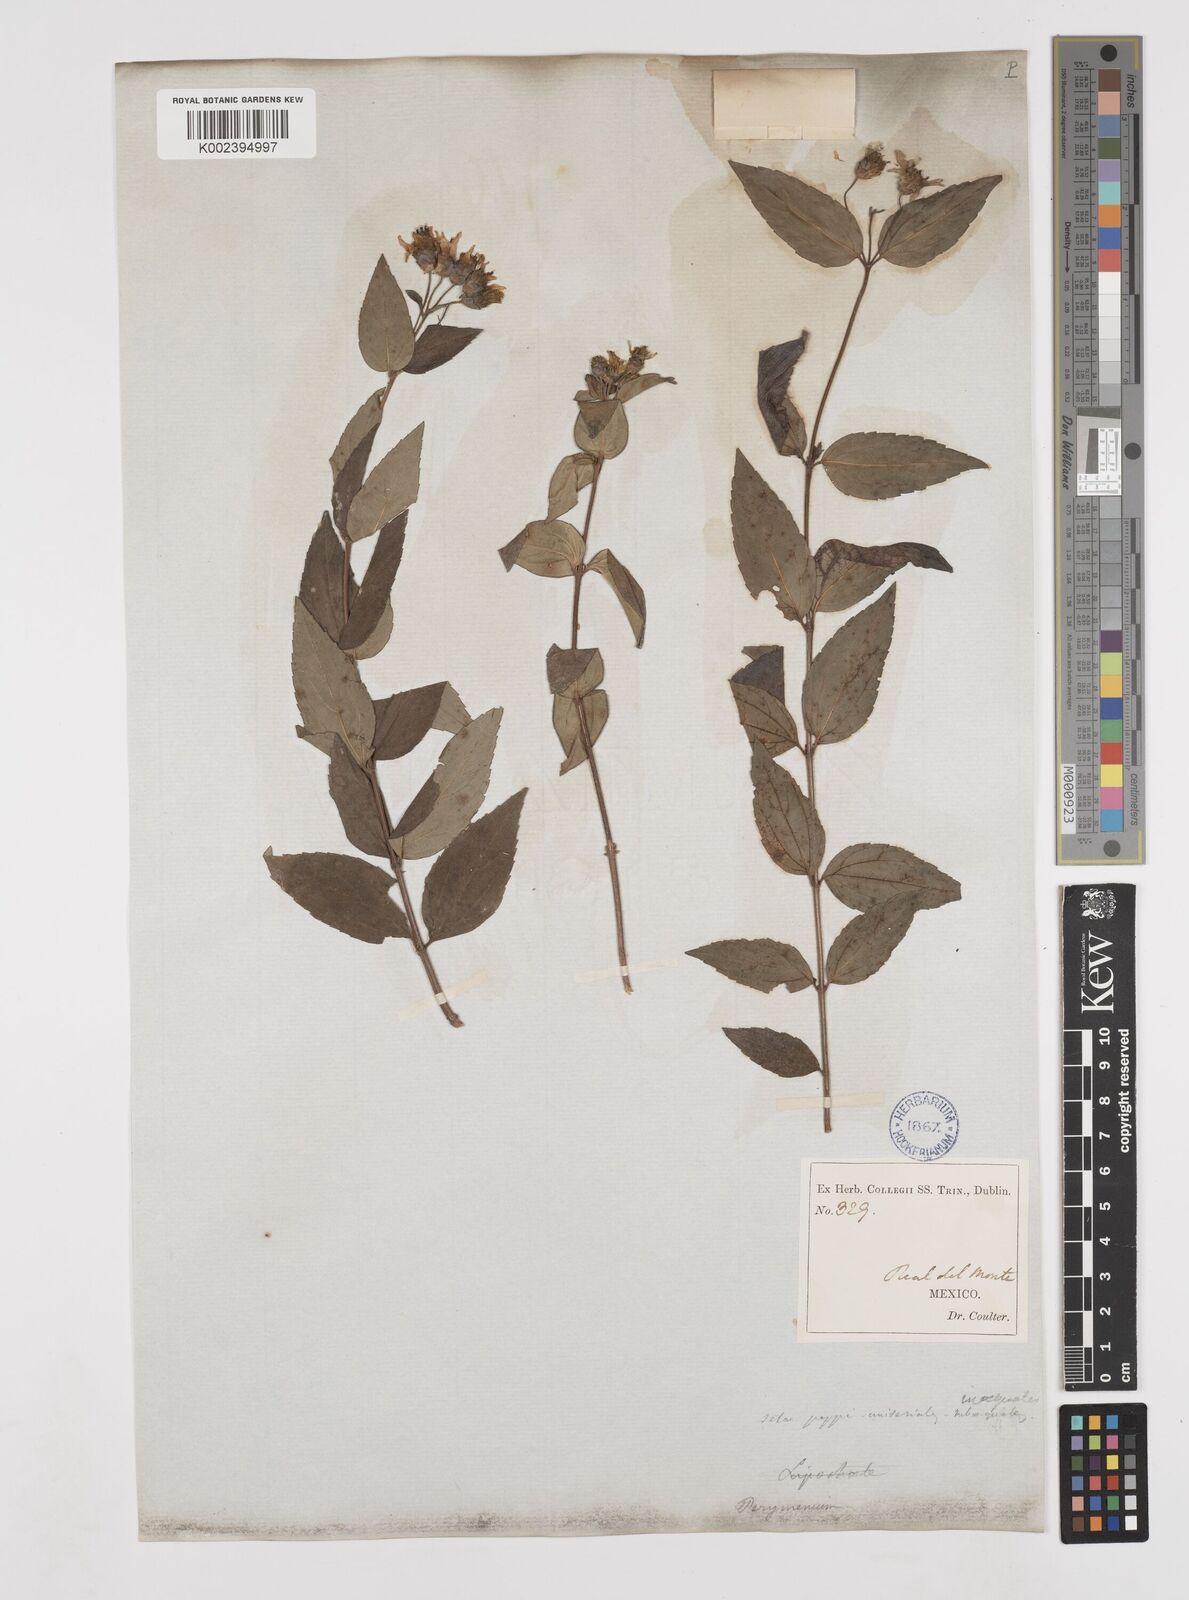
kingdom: Plantae
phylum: Tracheophyta
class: Magnoliopsida
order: Asterales
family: Asteraceae
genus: Perymenium
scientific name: Perymenium berlandieri
